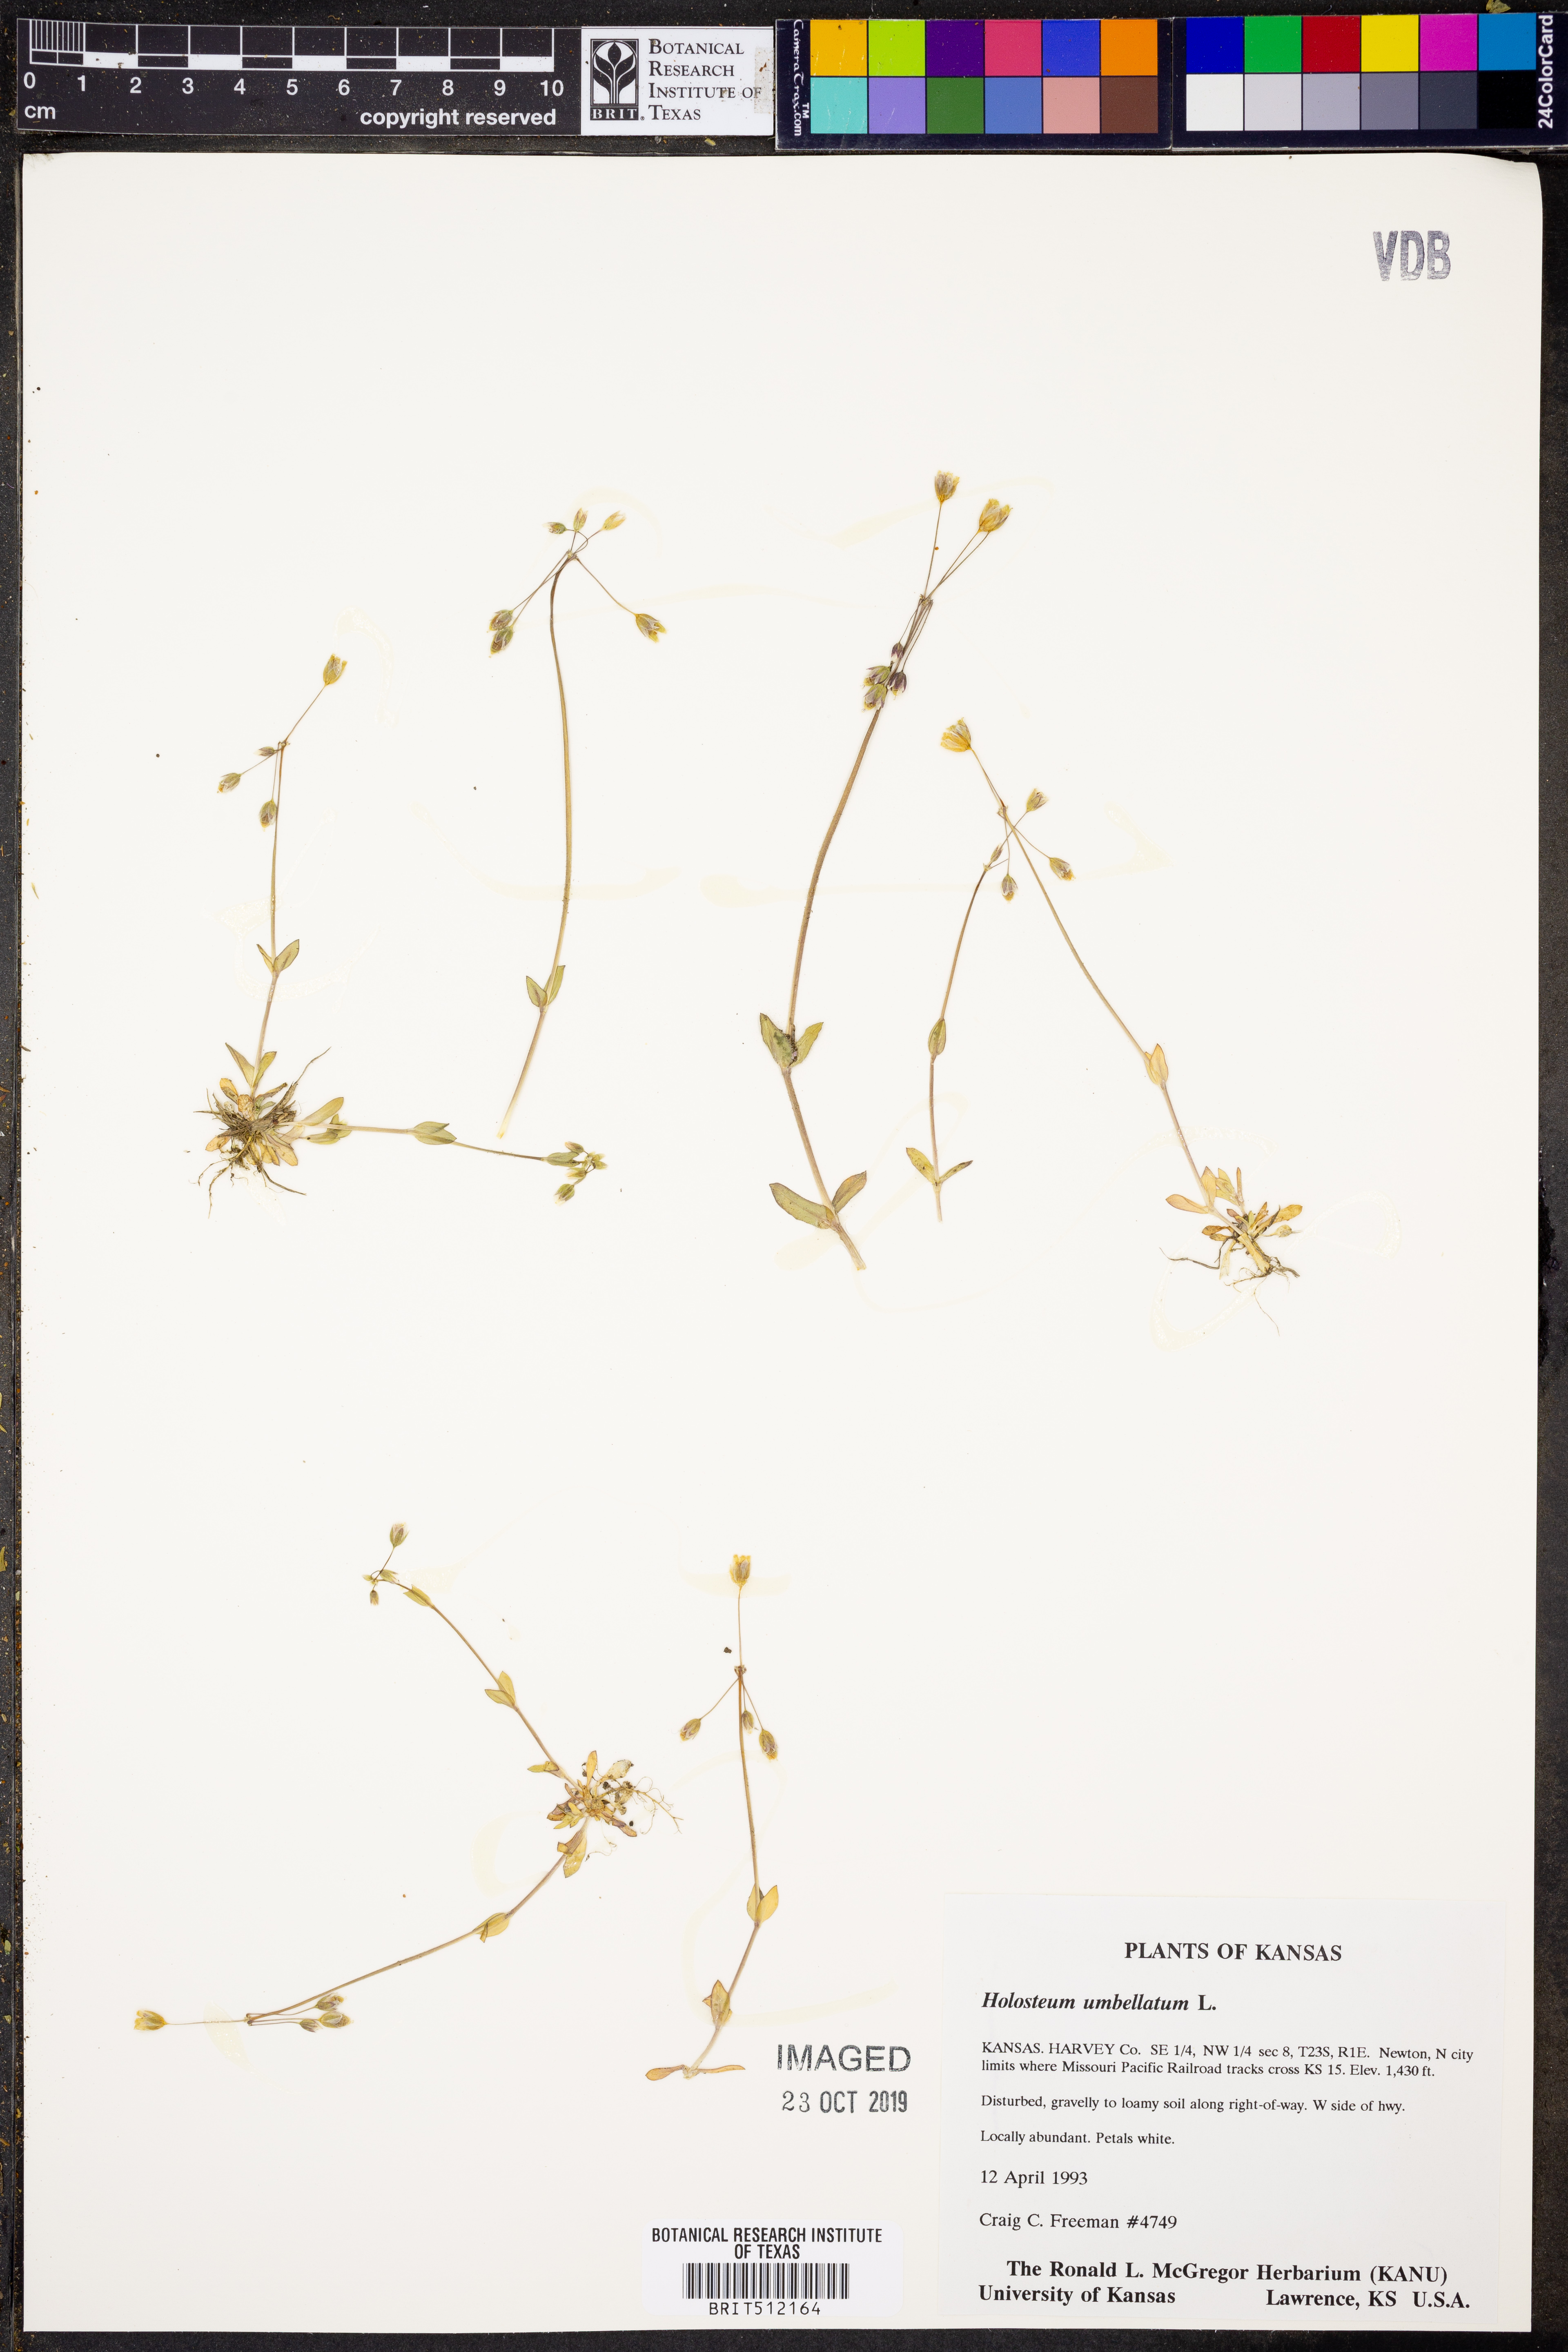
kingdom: Plantae
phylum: Tracheophyta
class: Magnoliopsida
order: Caryophyllales
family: Caryophyllaceae
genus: Holosteum
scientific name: Holosteum umbellatum
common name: Jagged chickweed
